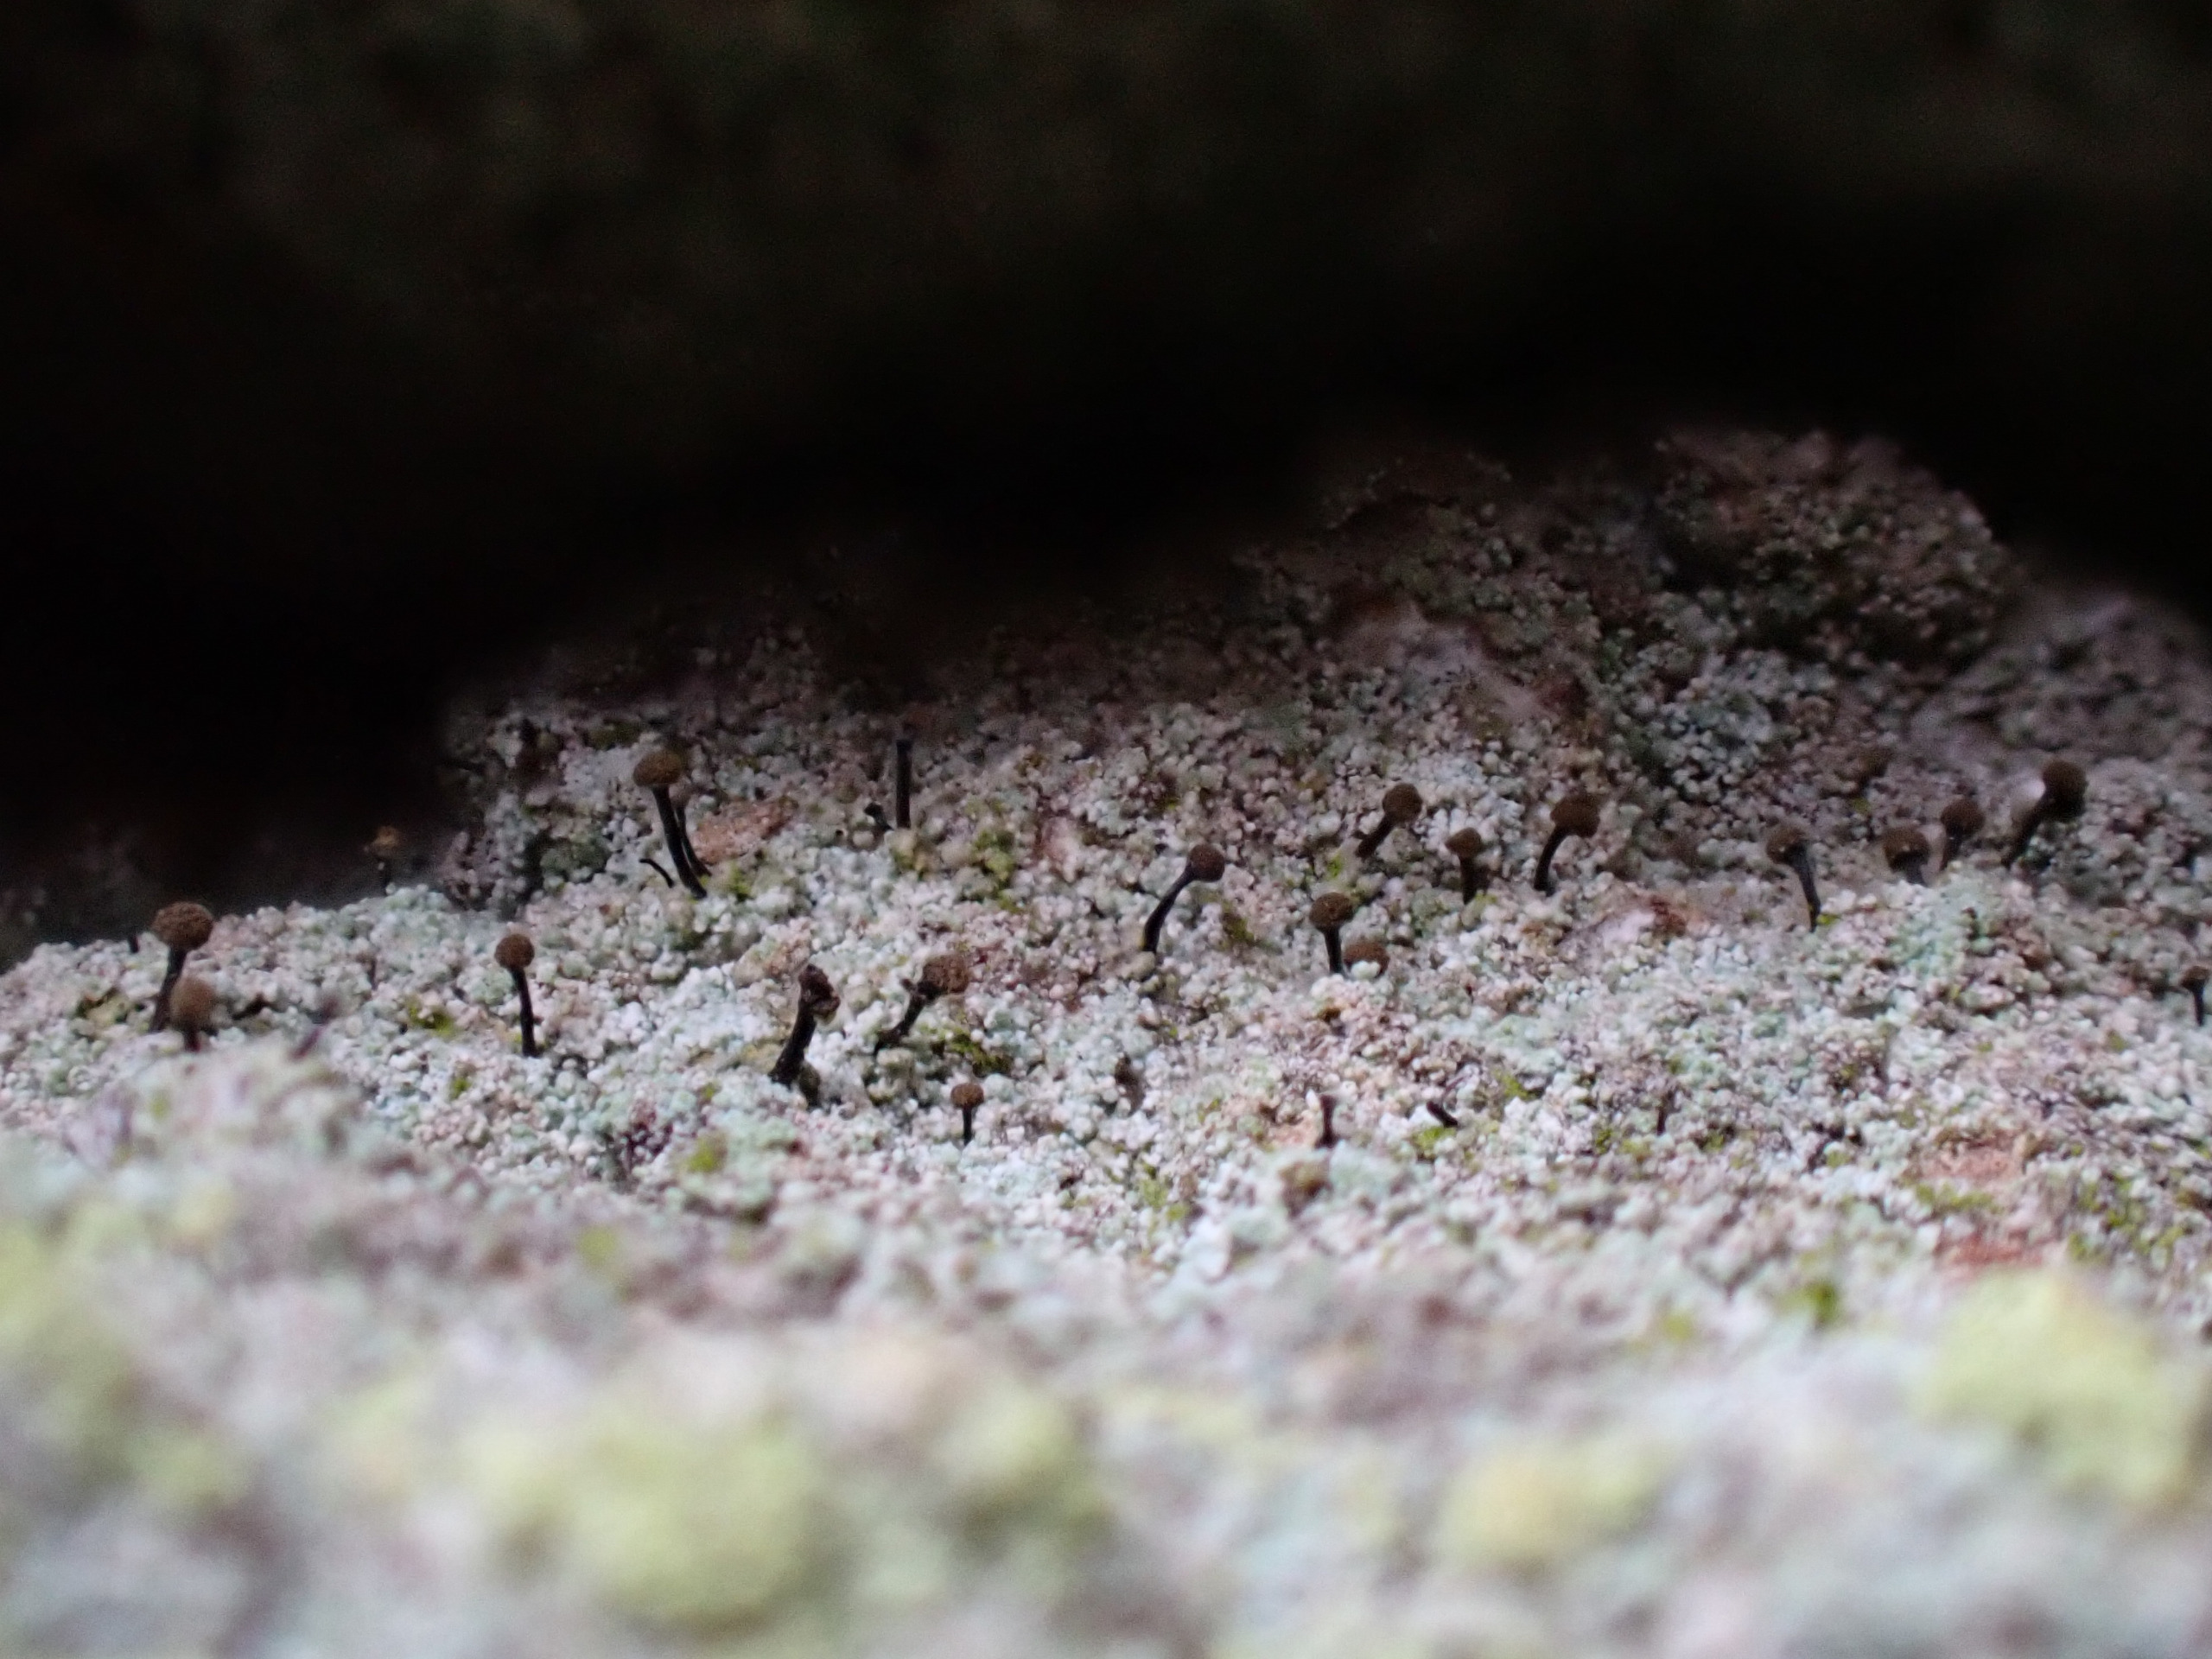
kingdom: Fungi
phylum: Ascomycota
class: Coniocybomycetes
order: Coniocybales
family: Coniocybaceae
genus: Chaenotheca
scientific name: Chaenotheca trichialis
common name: Grå knappenålslav
